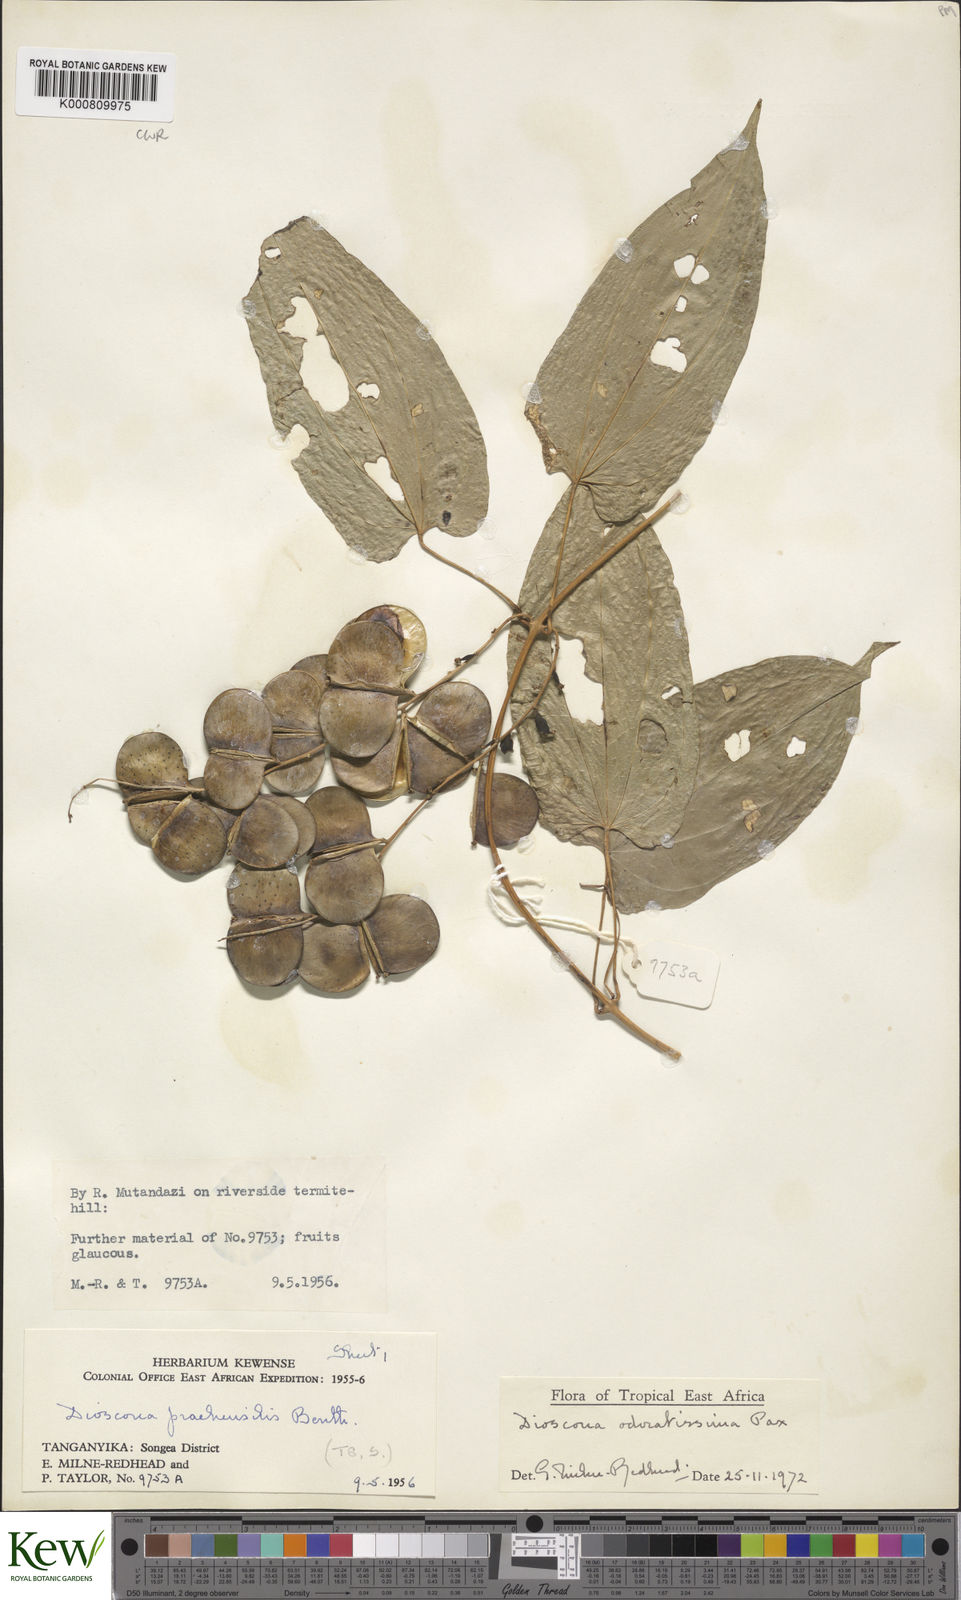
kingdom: Plantae
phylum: Tracheophyta
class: Liliopsida
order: Dioscoreales
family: Dioscoreaceae
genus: Dioscorea
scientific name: Dioscorea praehensilis
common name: Bush yam
